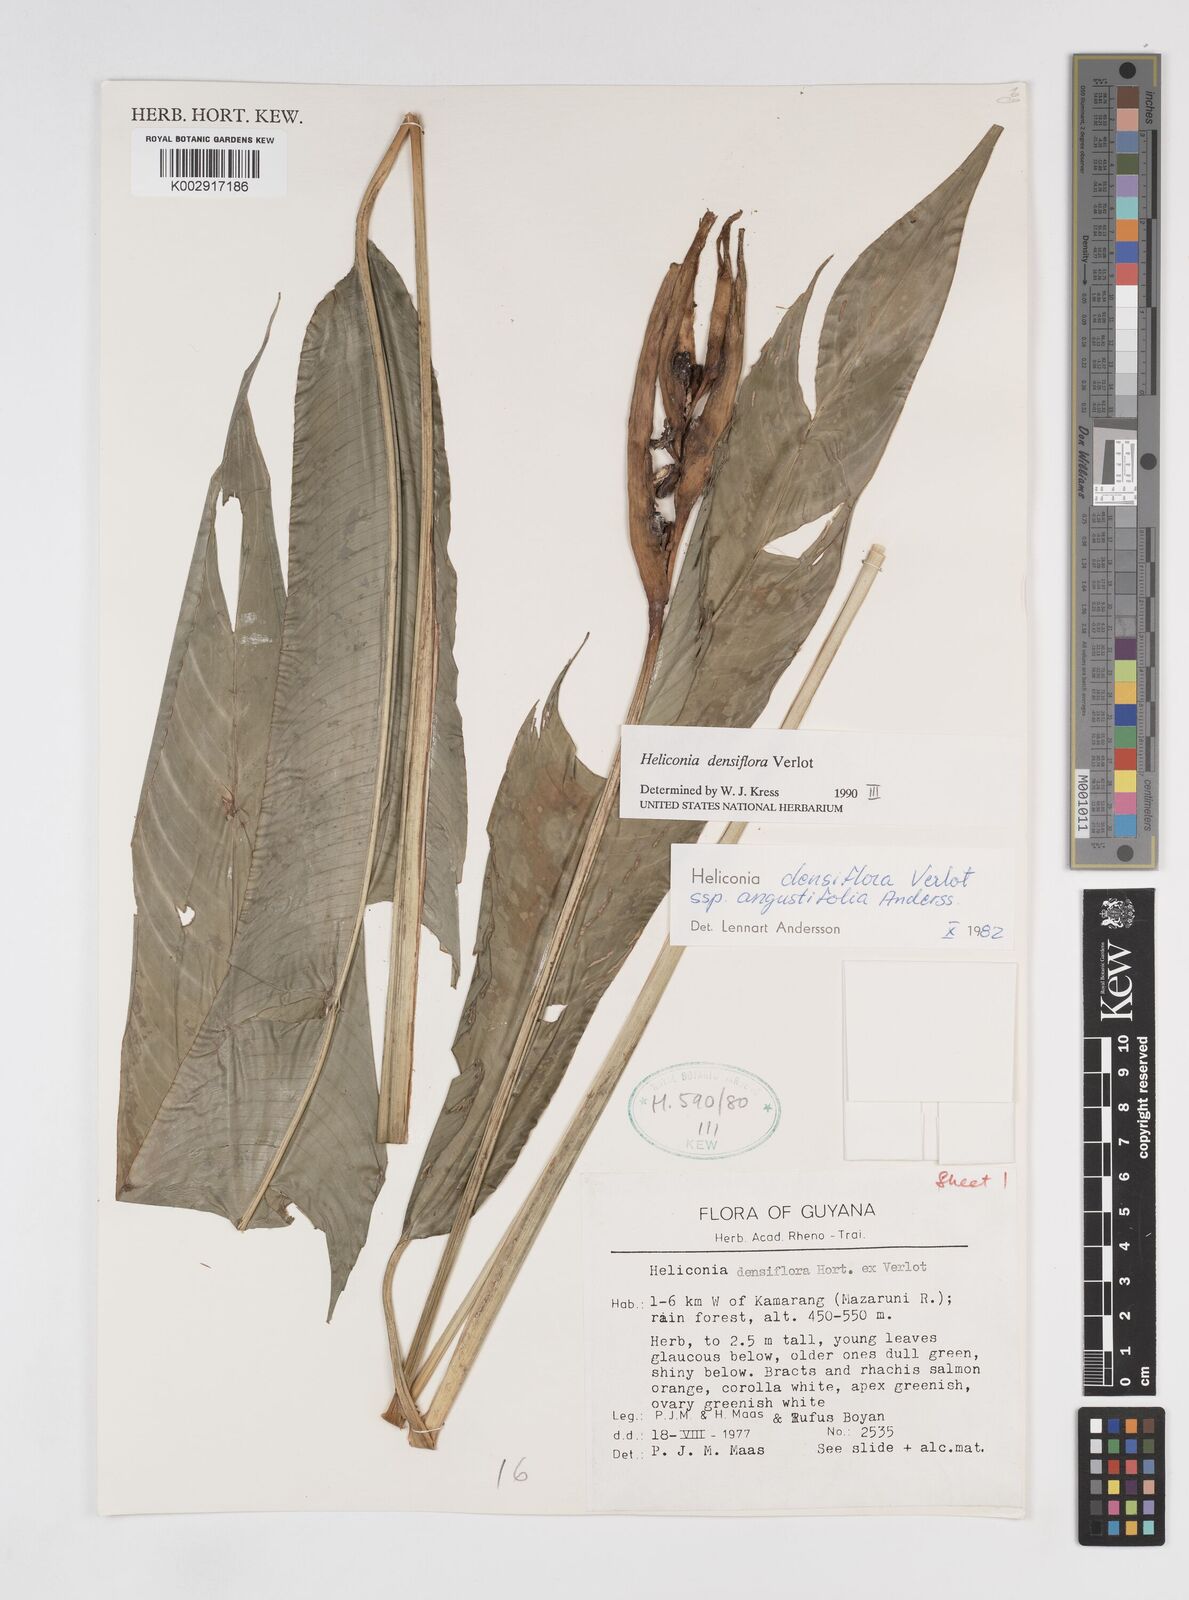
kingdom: Plantae
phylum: Tracheophyta
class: Liliopsida
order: Zingiberales
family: Heliconiaceae
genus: Heliconia
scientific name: Heliconia densiflora
